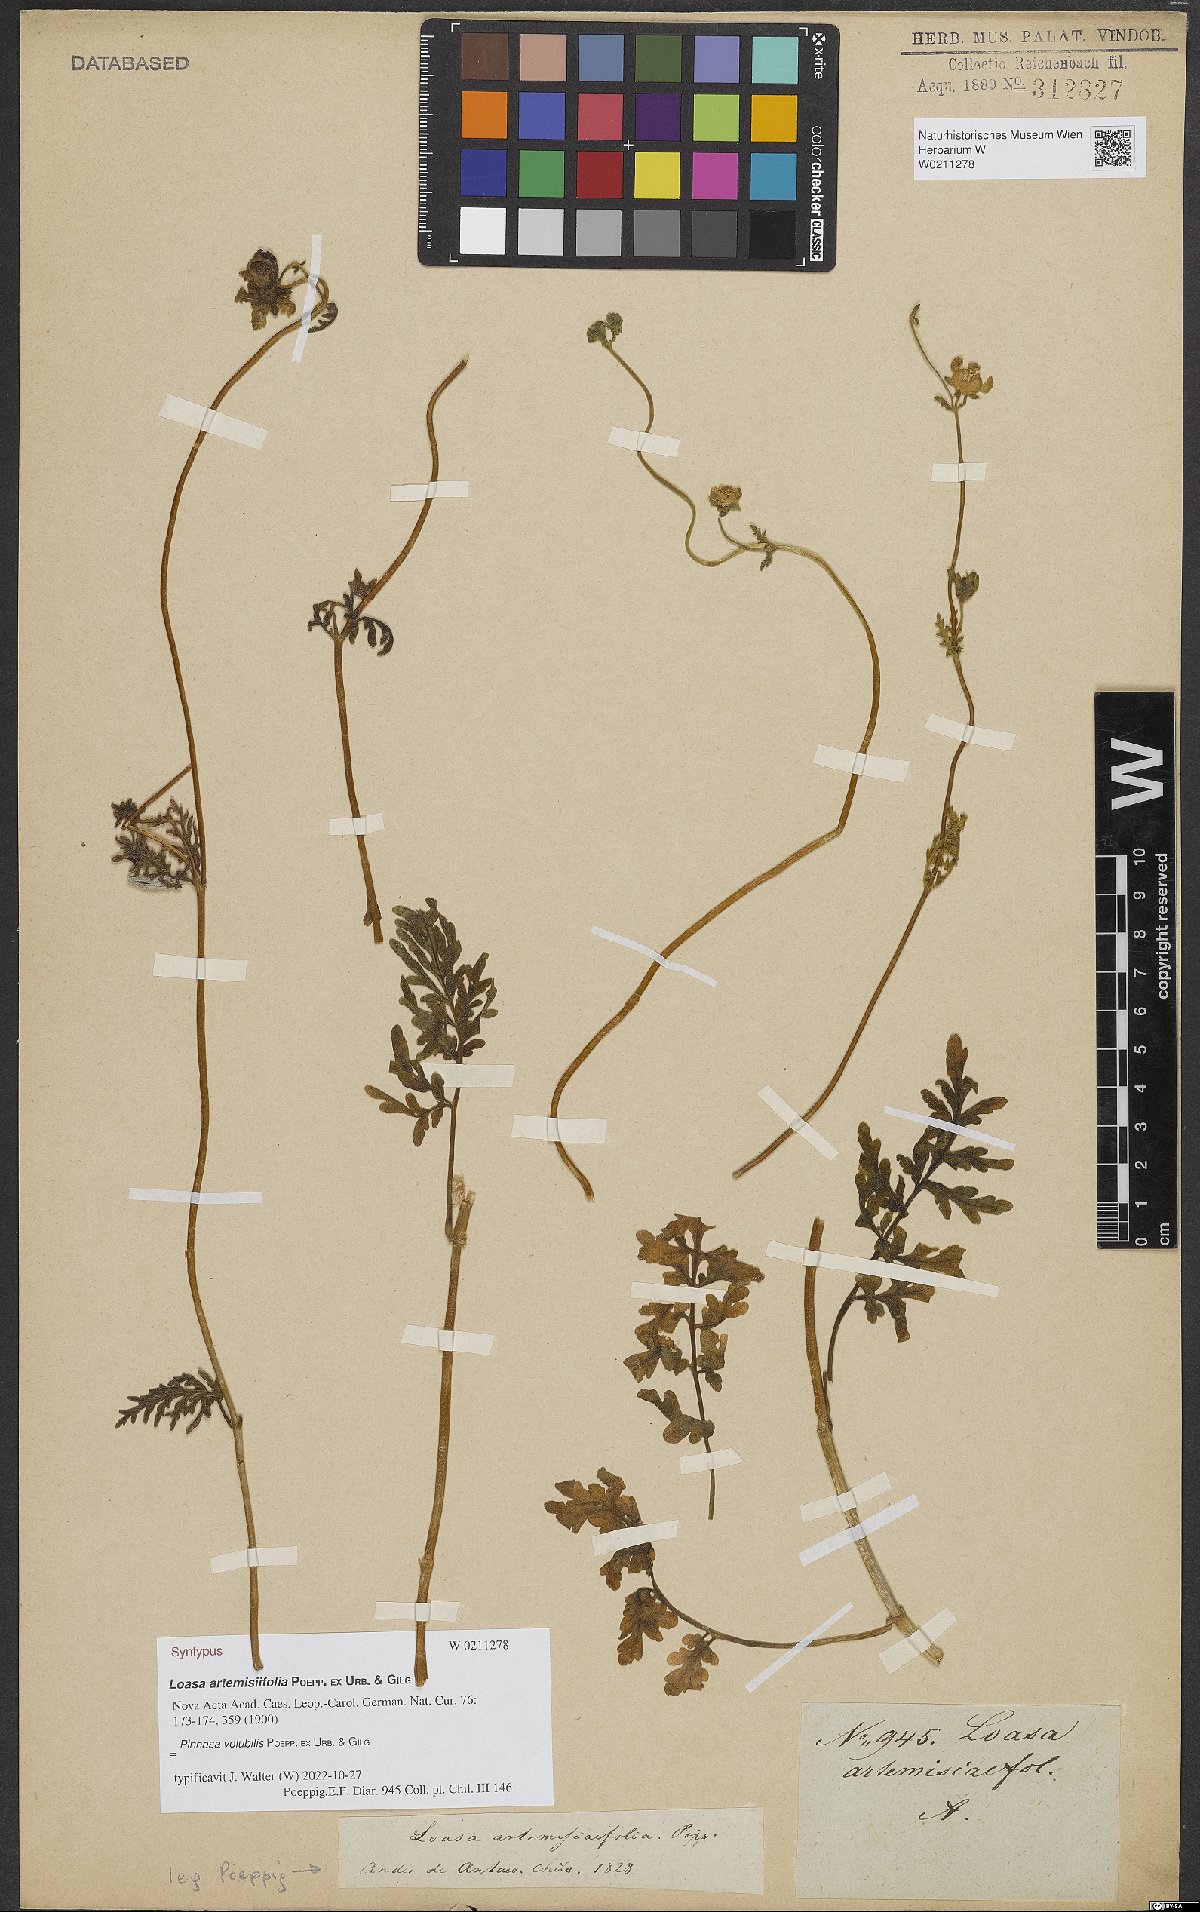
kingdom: Plantae
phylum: Tracheophyta
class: Magnoliopsida
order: Cornales
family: Loasaceae
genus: Pinnasa
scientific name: Pinnasa volubilis
